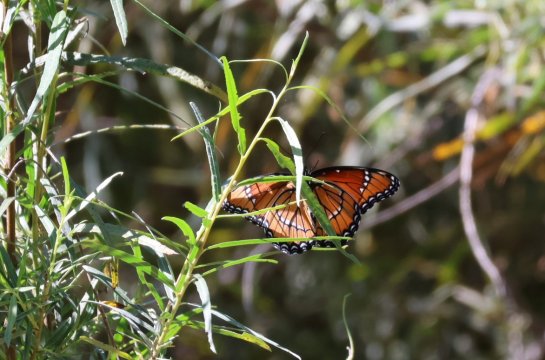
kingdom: Animalia
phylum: Arthropoda
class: Insecta
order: Lepidoptera
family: Nymphalidae
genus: Limenitis
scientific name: Limenitis archippus
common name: Viceroy
